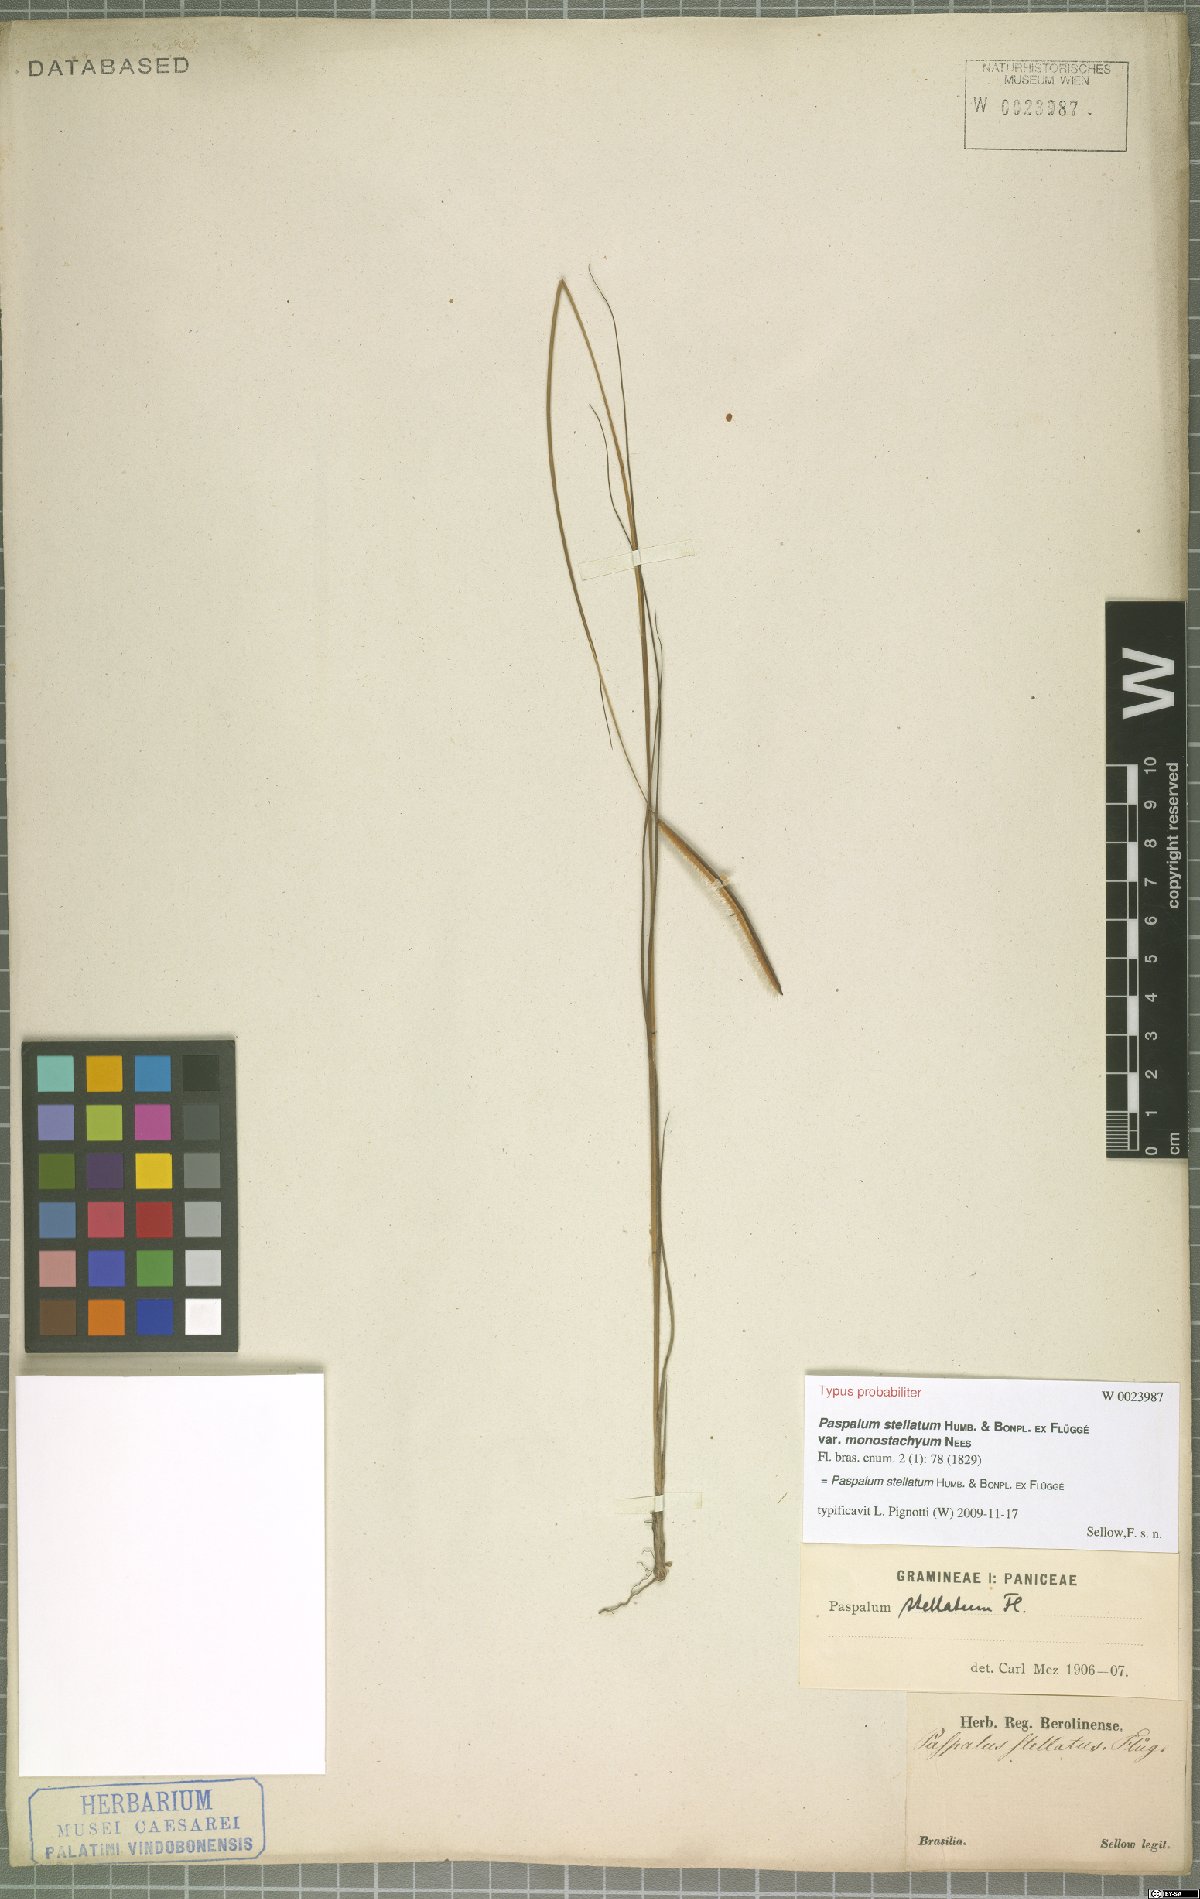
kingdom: Plantae
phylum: Tracheophyta
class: Liliopsida
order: Poales
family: Poaceae
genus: Paspalum
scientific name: Paspalum stellatum
